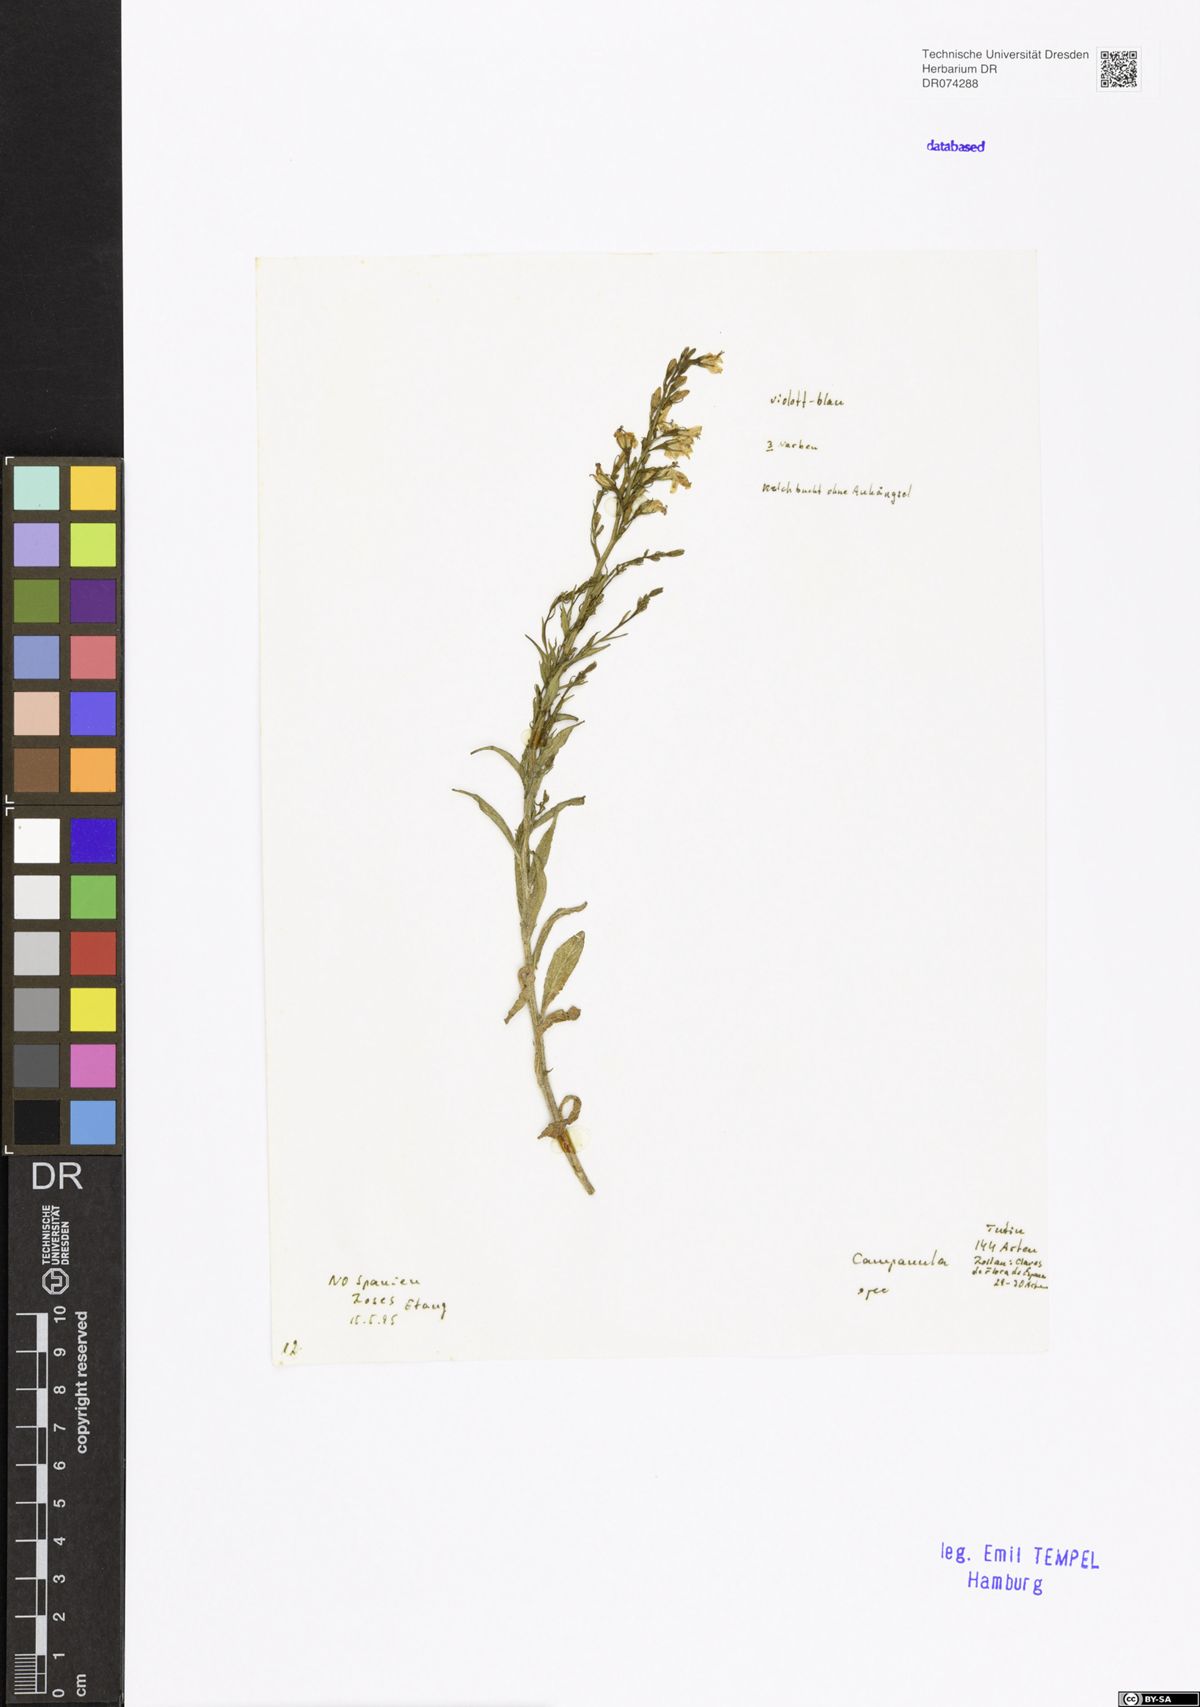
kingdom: Plantae
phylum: Tracheophyta
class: Magnoliopsida
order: Asterales
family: Campanulaceae
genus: Campanula
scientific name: Campanula
